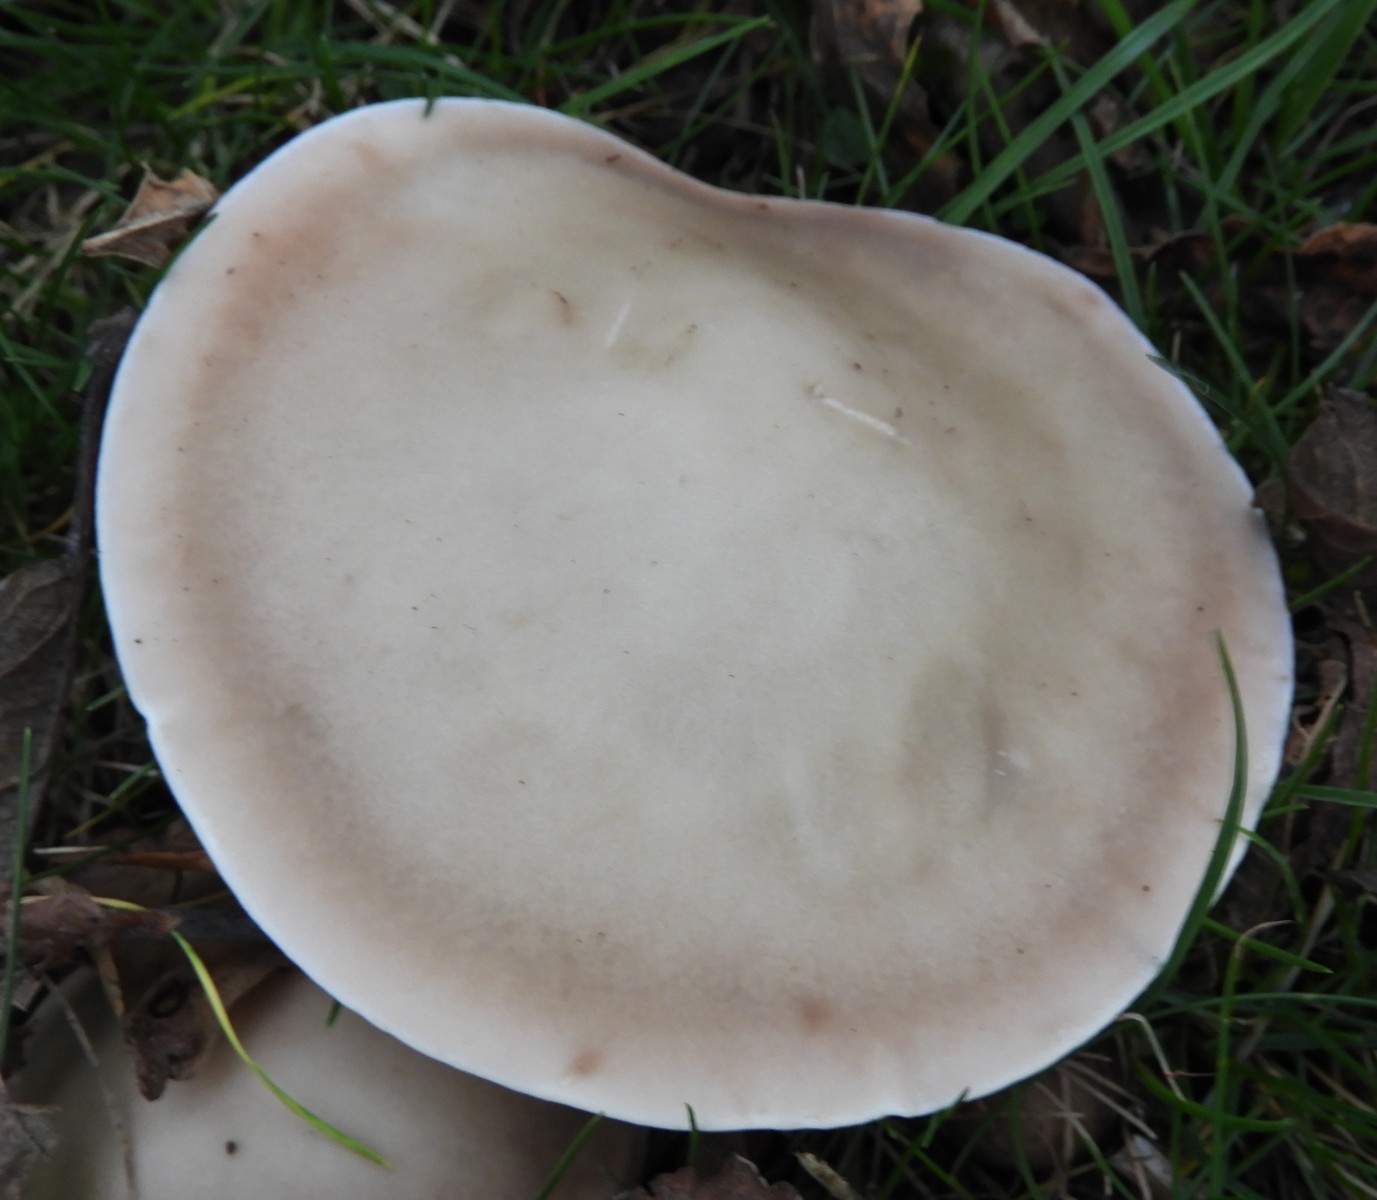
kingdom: Fungi
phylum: Basidiomycota
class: Agaricomycetes
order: Agaricales
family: Tricholomataceae
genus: Lepista
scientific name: Lepista personata
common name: bleg hekseringshat
